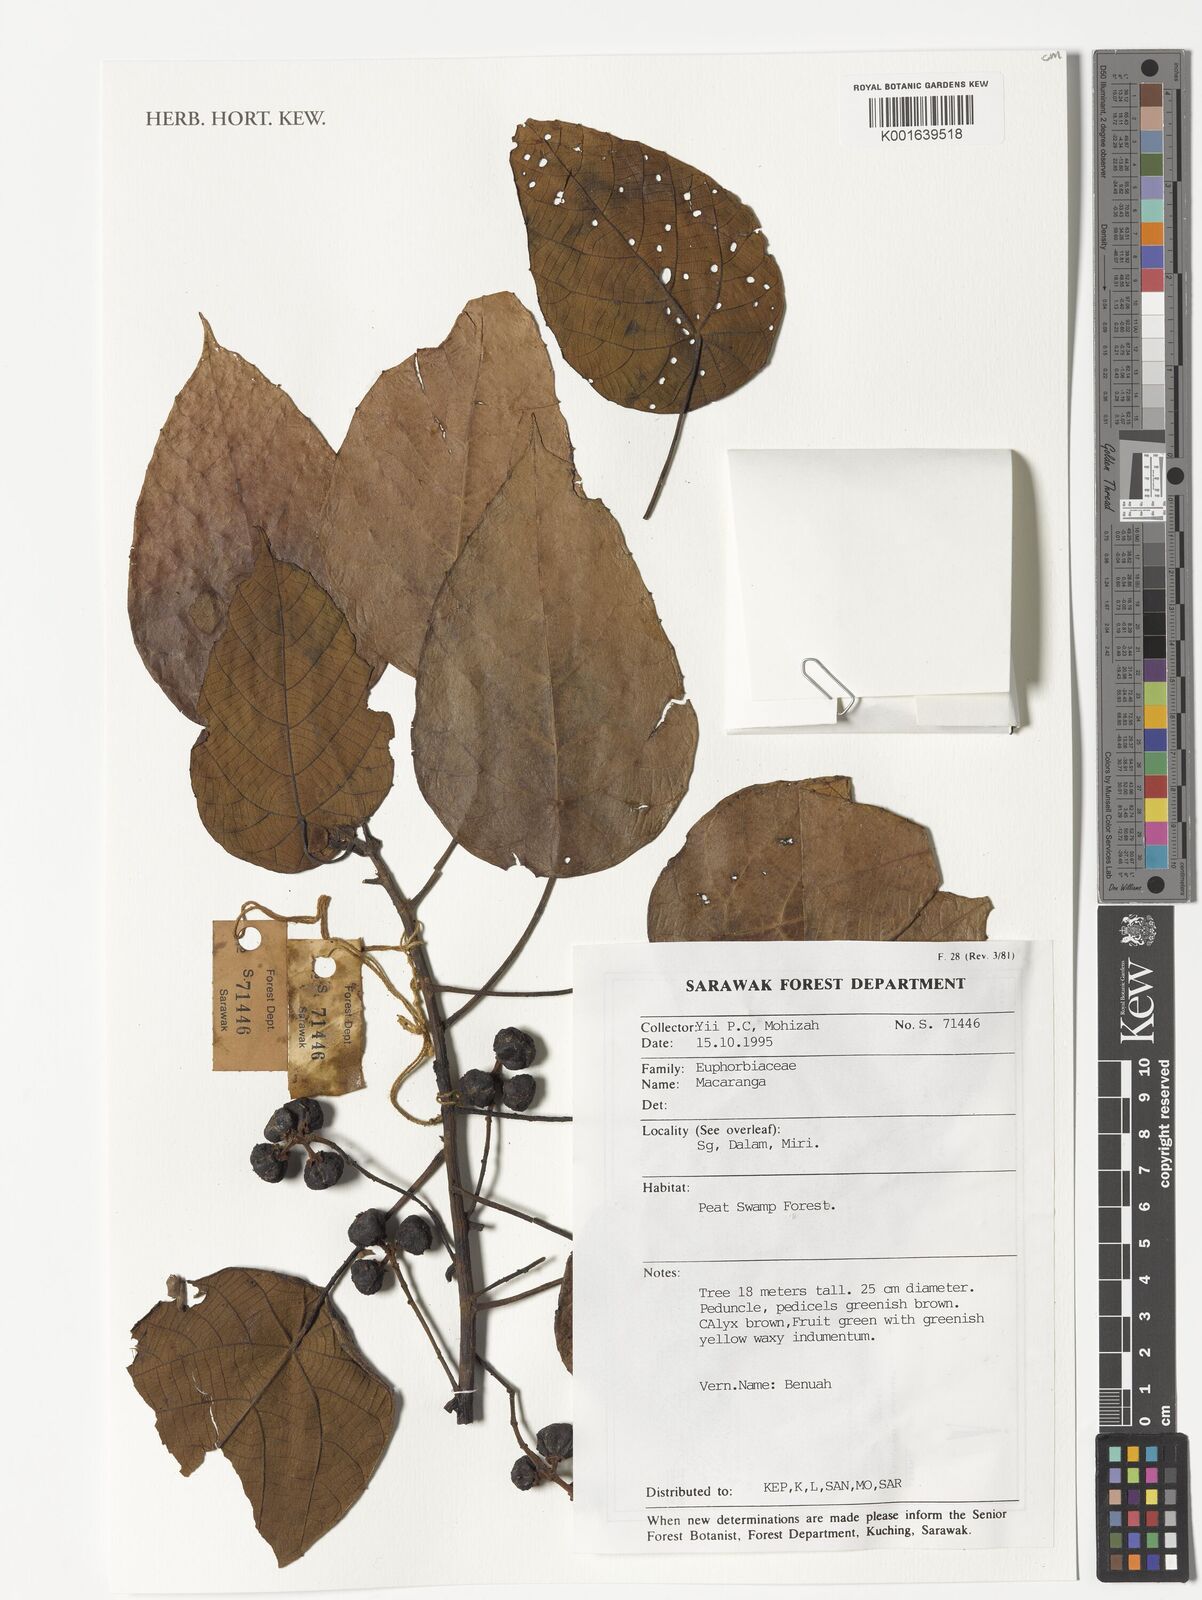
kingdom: Plantae
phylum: Tracheophyta
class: Magnoliopsida
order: Malpighiales
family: Euphorbiaceae
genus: Macaranga
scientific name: Macaranga
